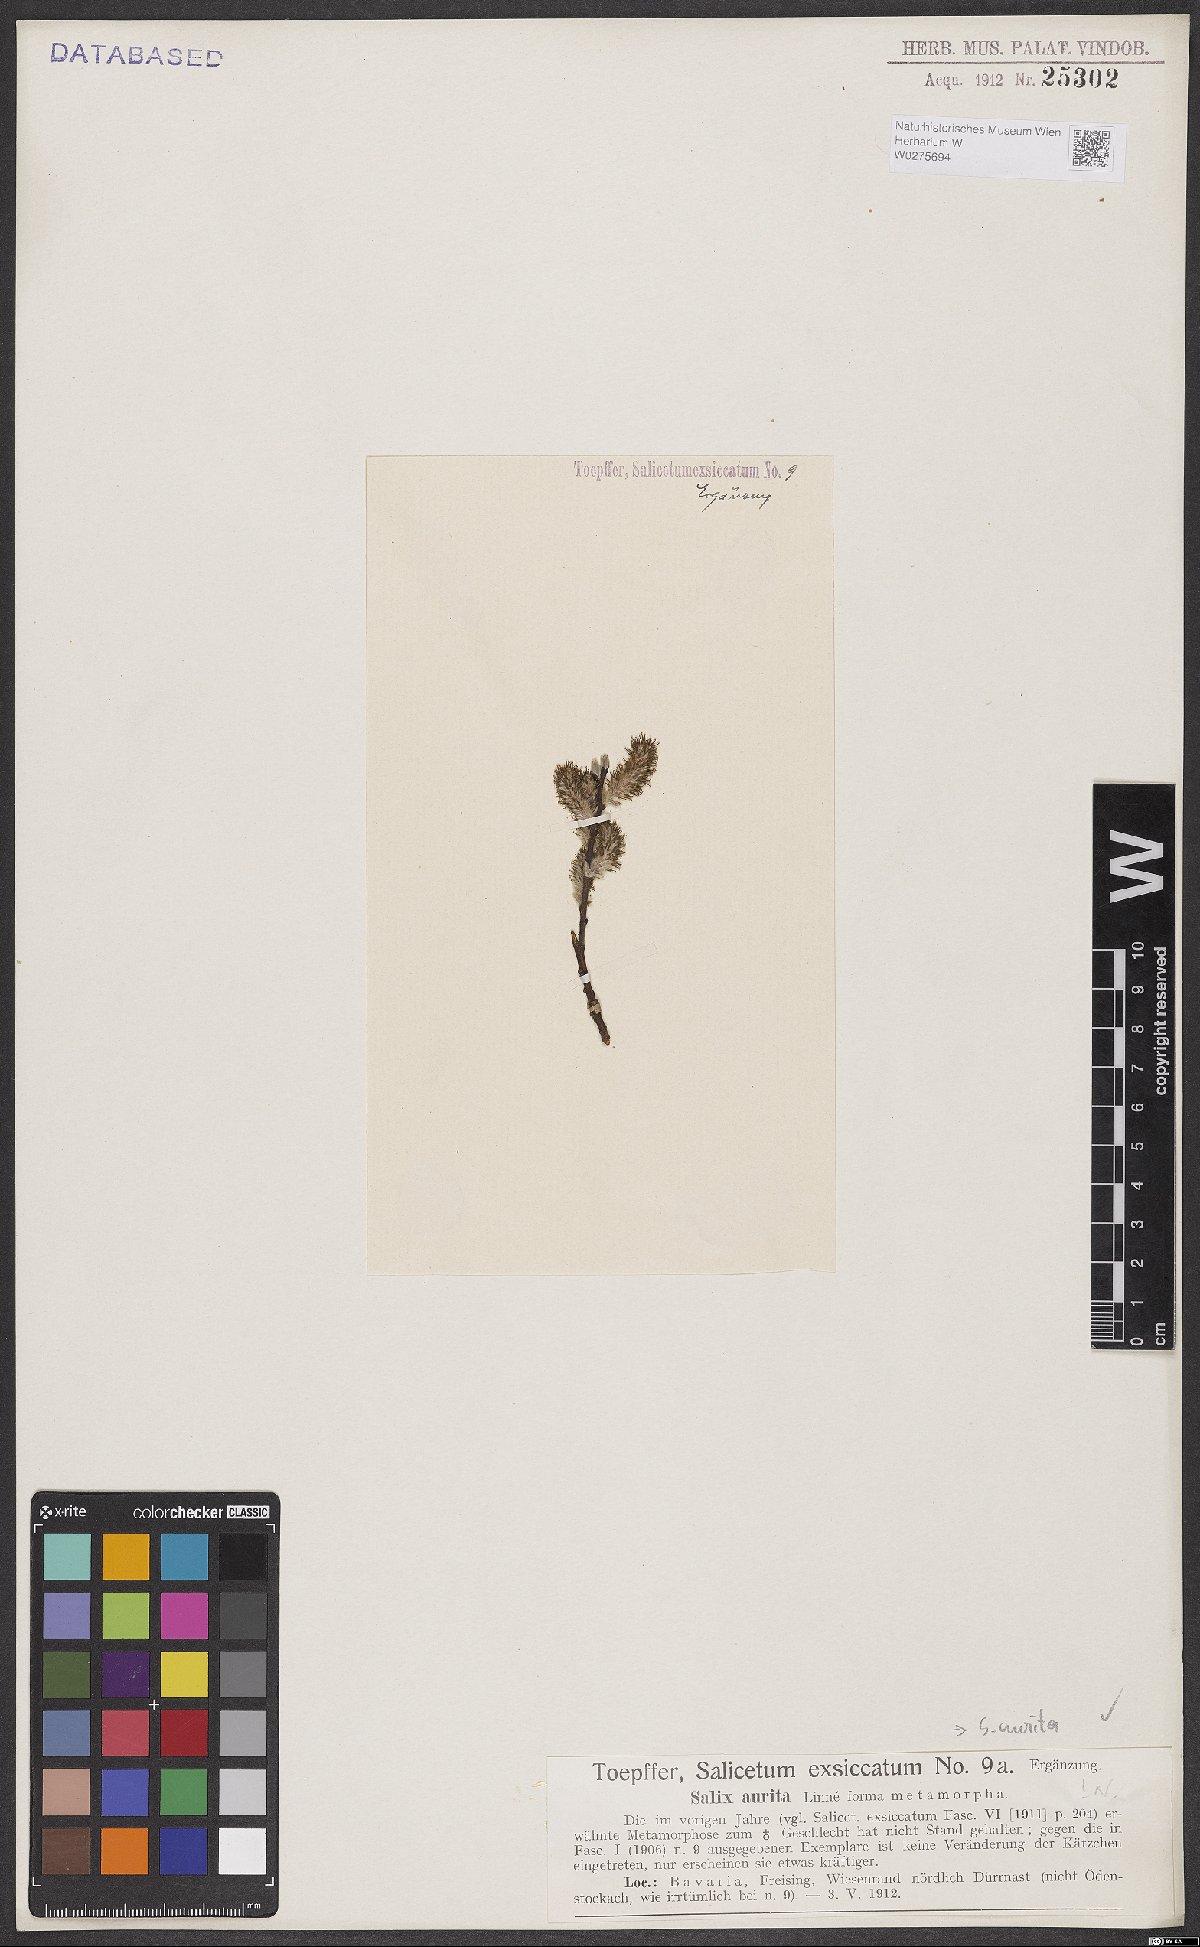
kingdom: Plantae
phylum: Tracheophyta
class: Magnoliopsida
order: Malpighiales
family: Salicaceae
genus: Salix
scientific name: Salix aurita
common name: Eared willow
